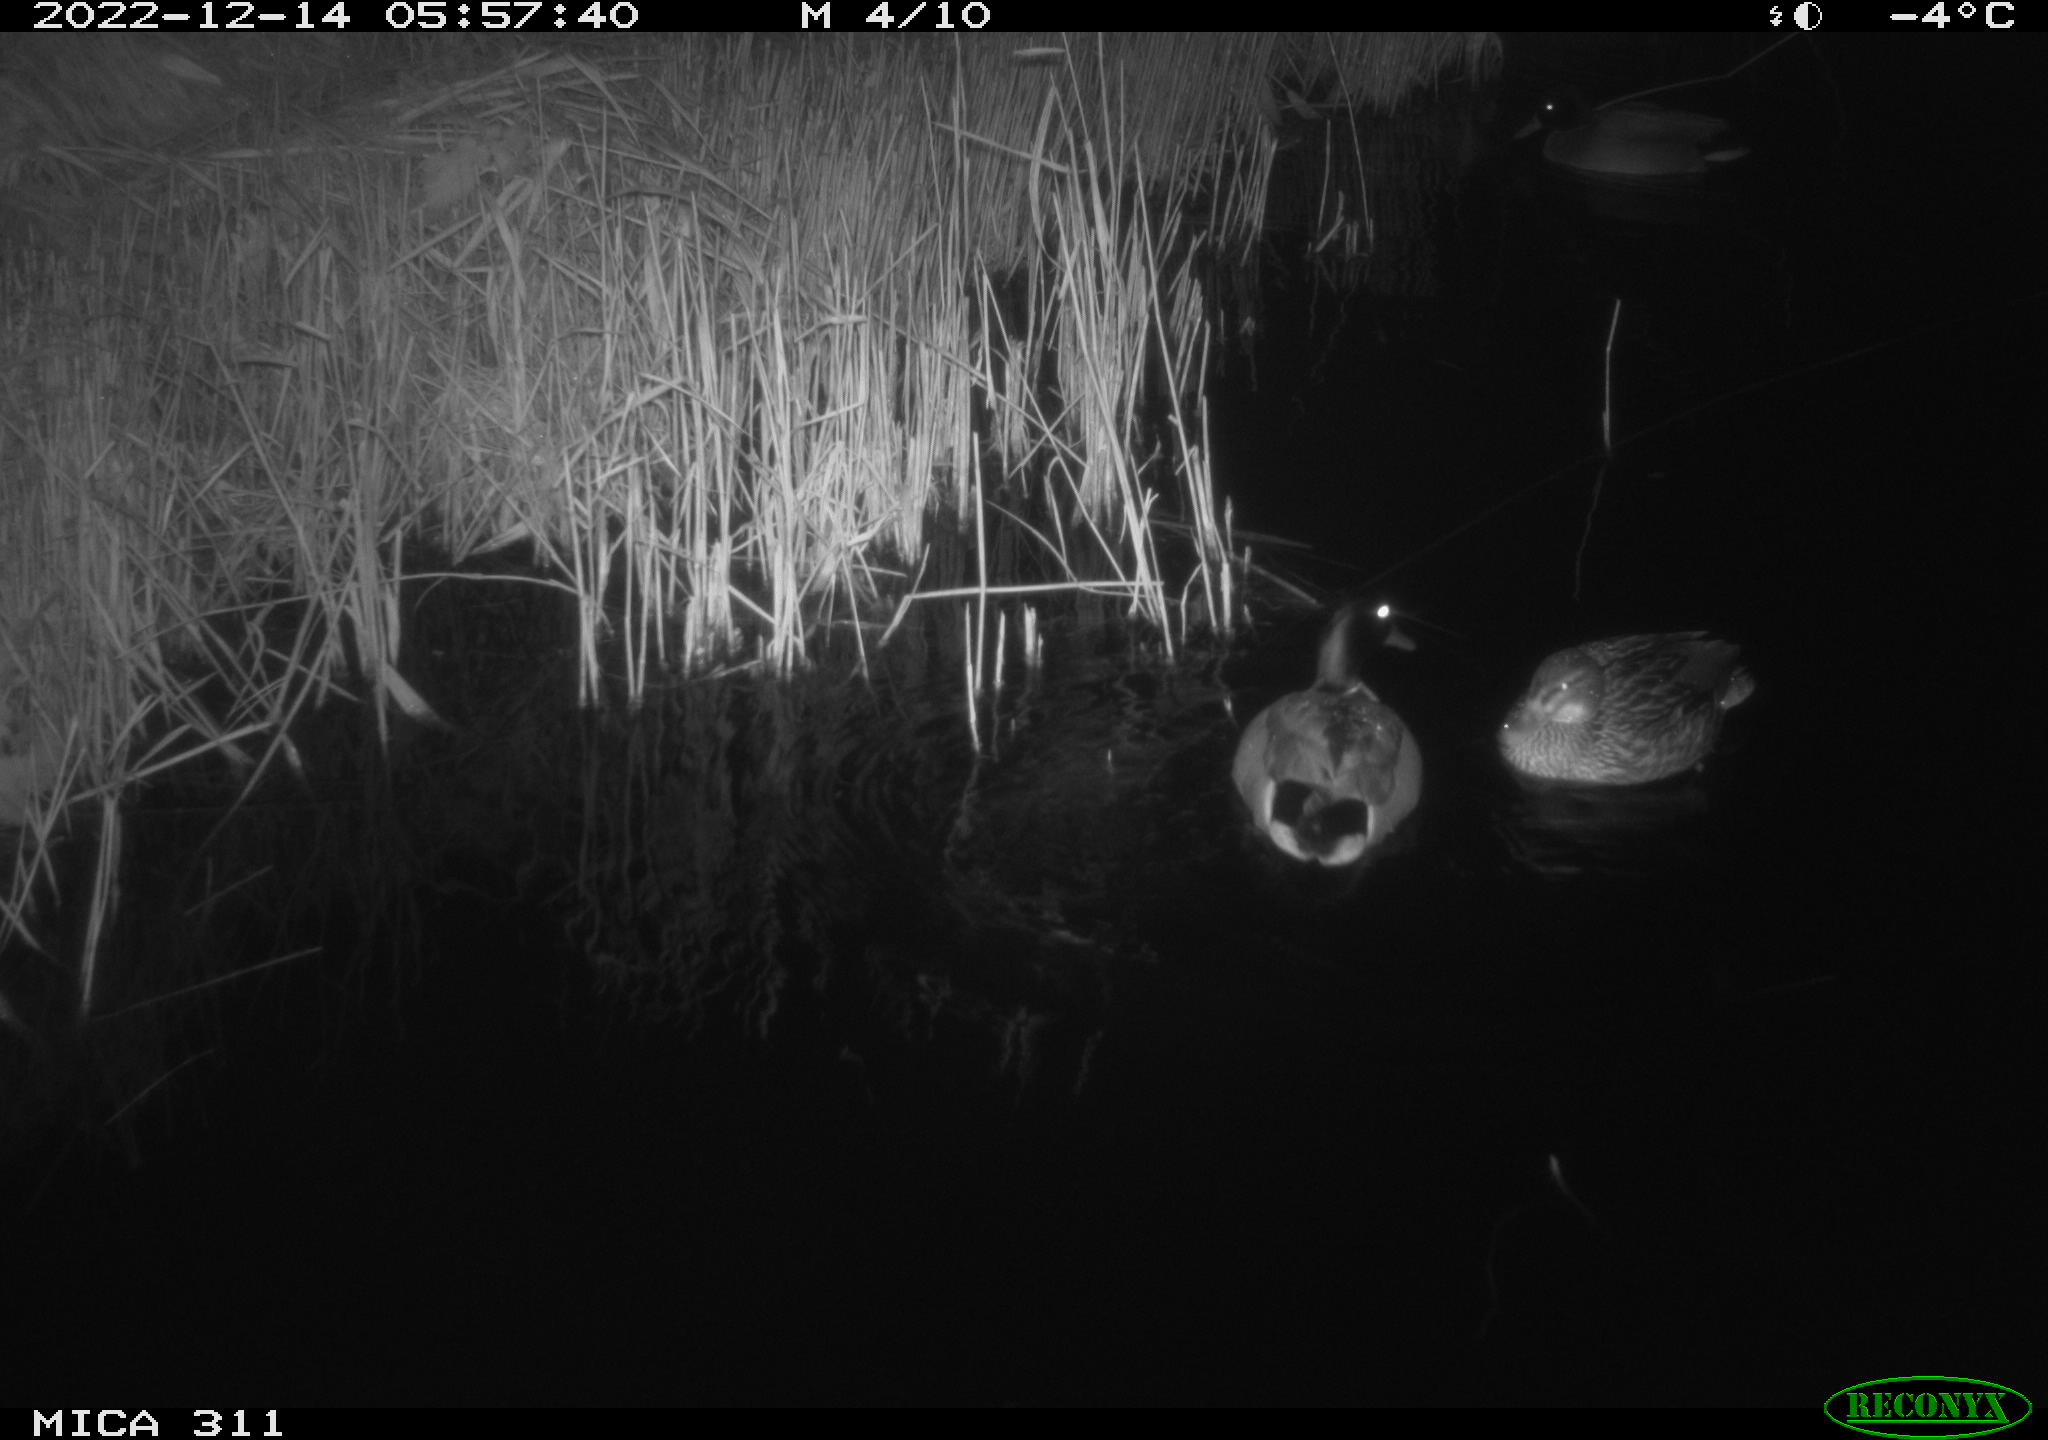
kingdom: Animalia
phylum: Chordata
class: Aves
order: Anseriformes
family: Anatidae
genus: Anas
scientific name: Anas
